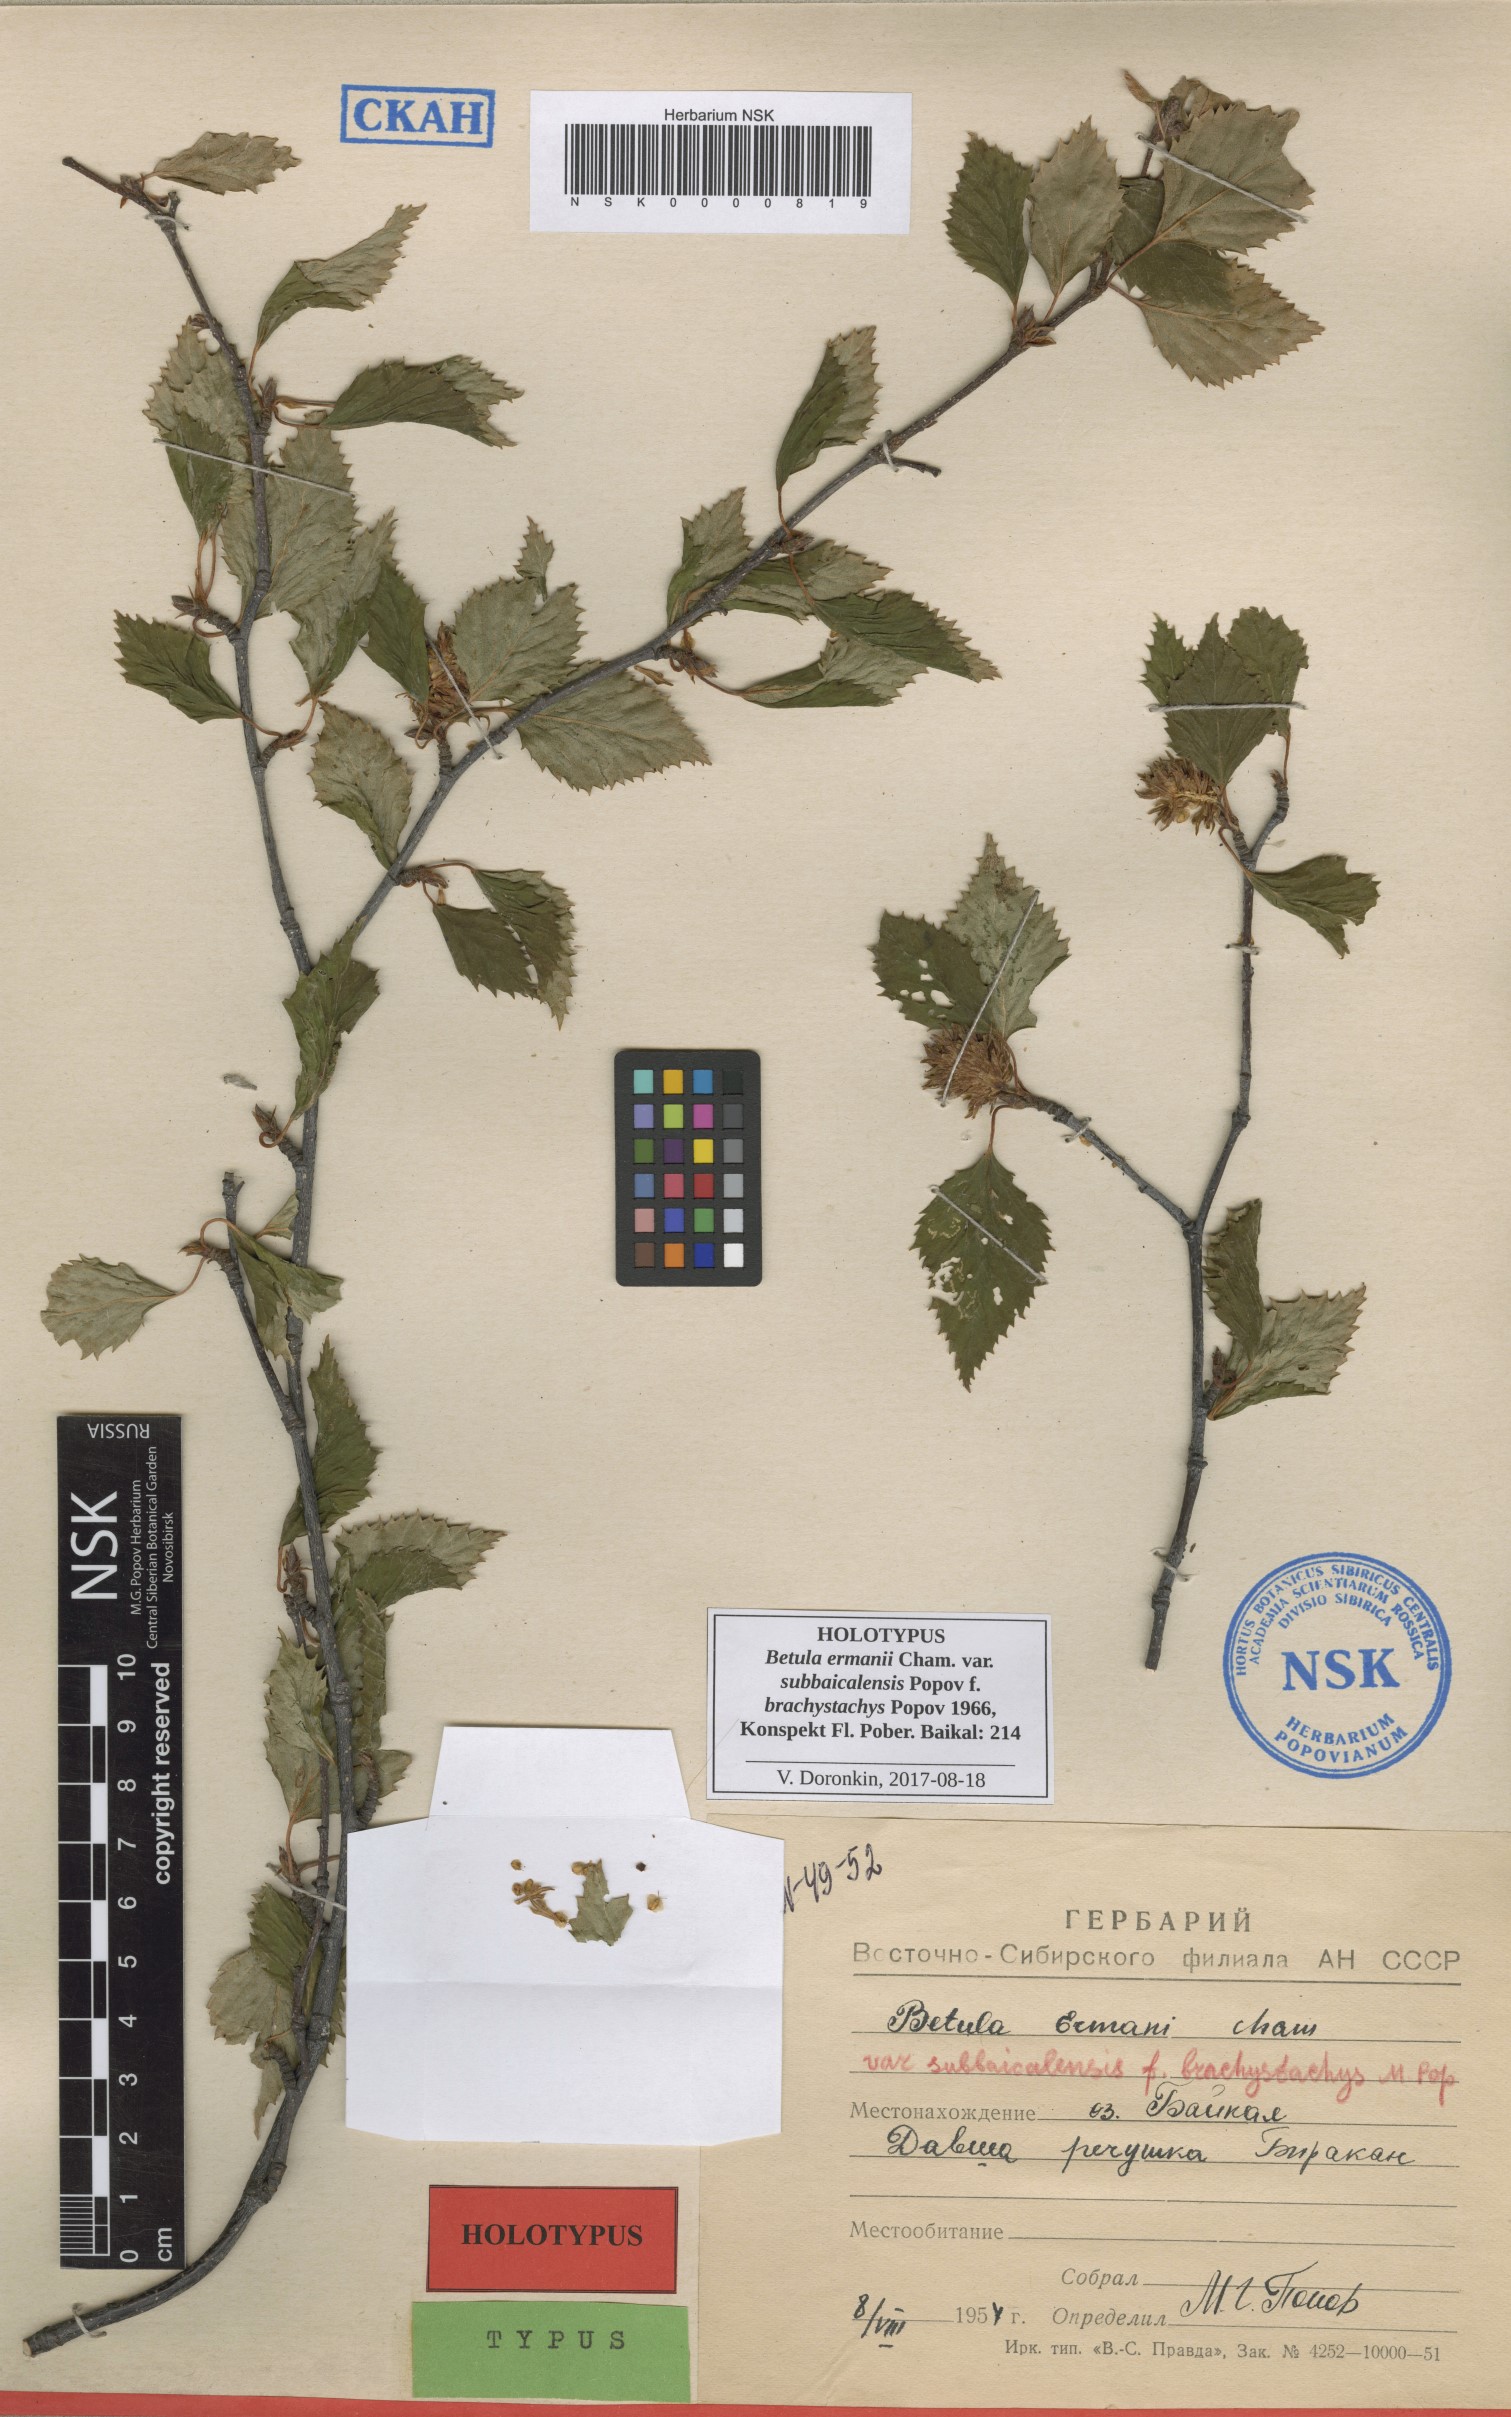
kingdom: Plantae
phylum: Tracheophyta
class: Magnoliopsida
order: Fagales
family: Betulaceae
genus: Betula
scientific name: Betula ermanii
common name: Erman's birch
